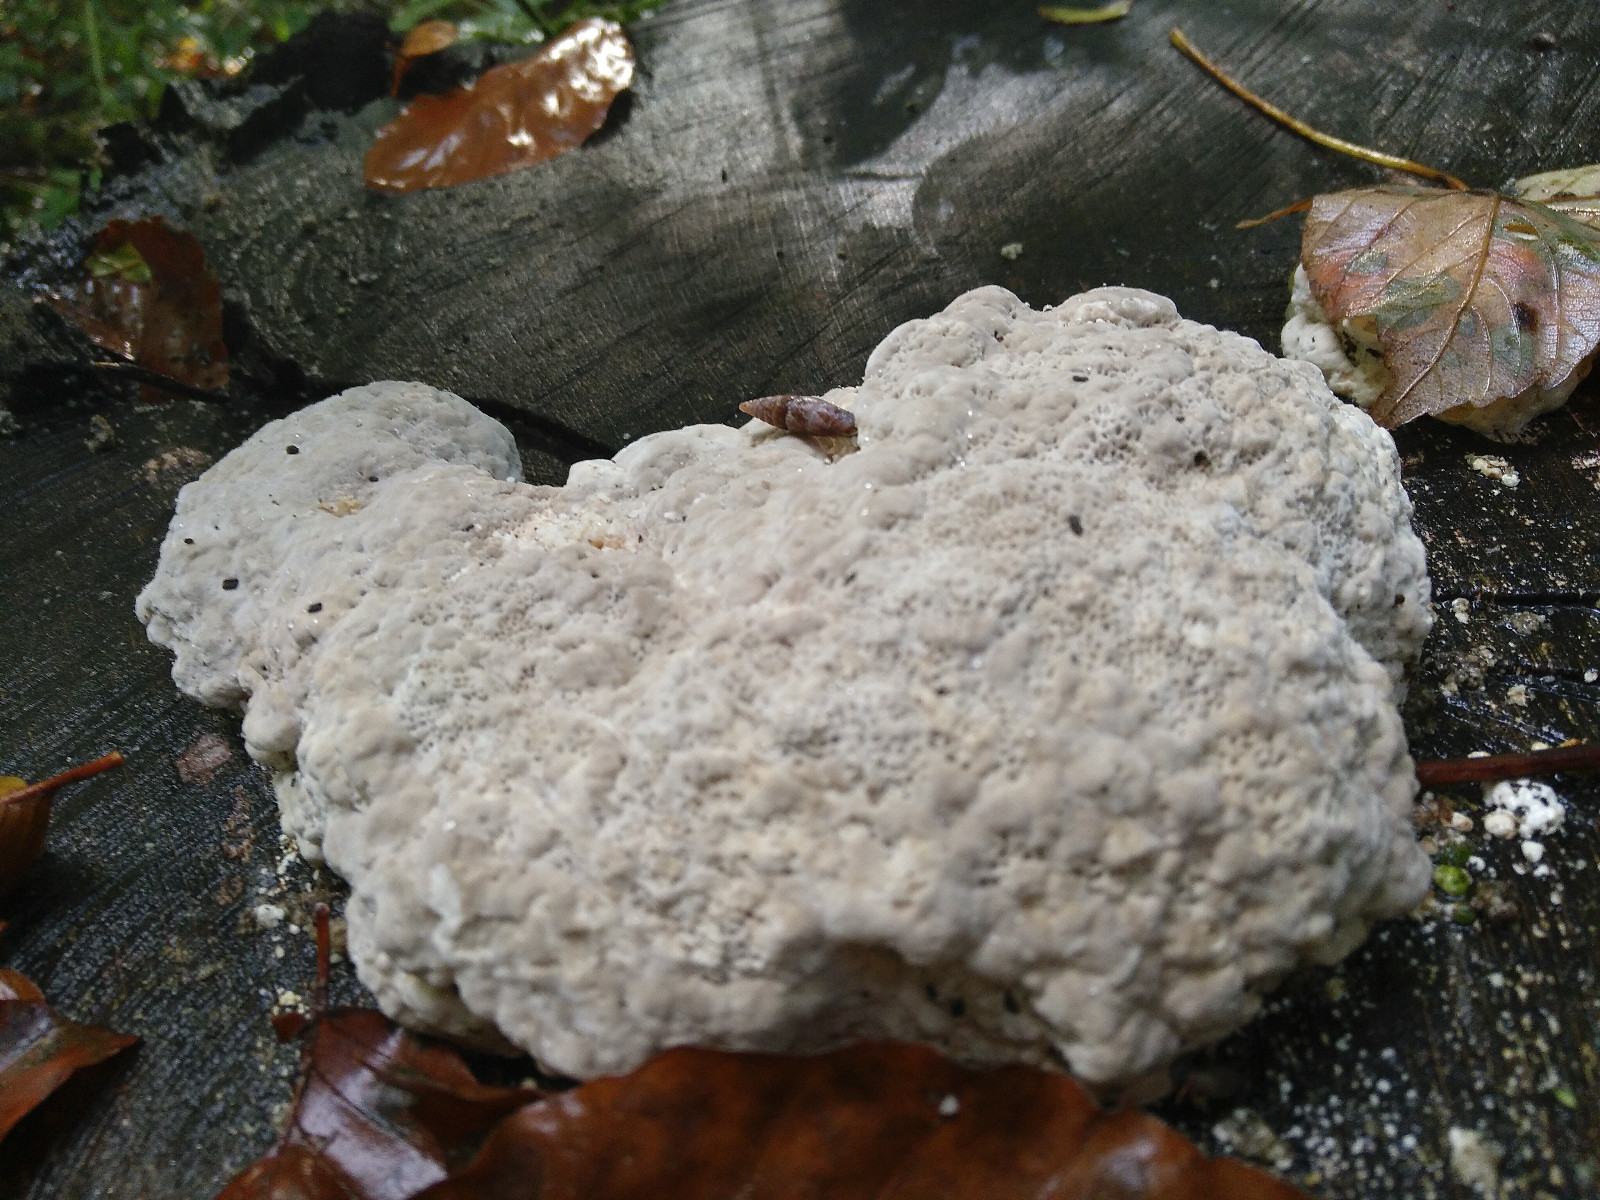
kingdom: Fungi
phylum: Basidiomycota
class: Agaricomycetes
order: Polyporales
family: Polyporaceae
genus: Trametes
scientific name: Trametes gibbosa
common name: puklet læderporesvamp
